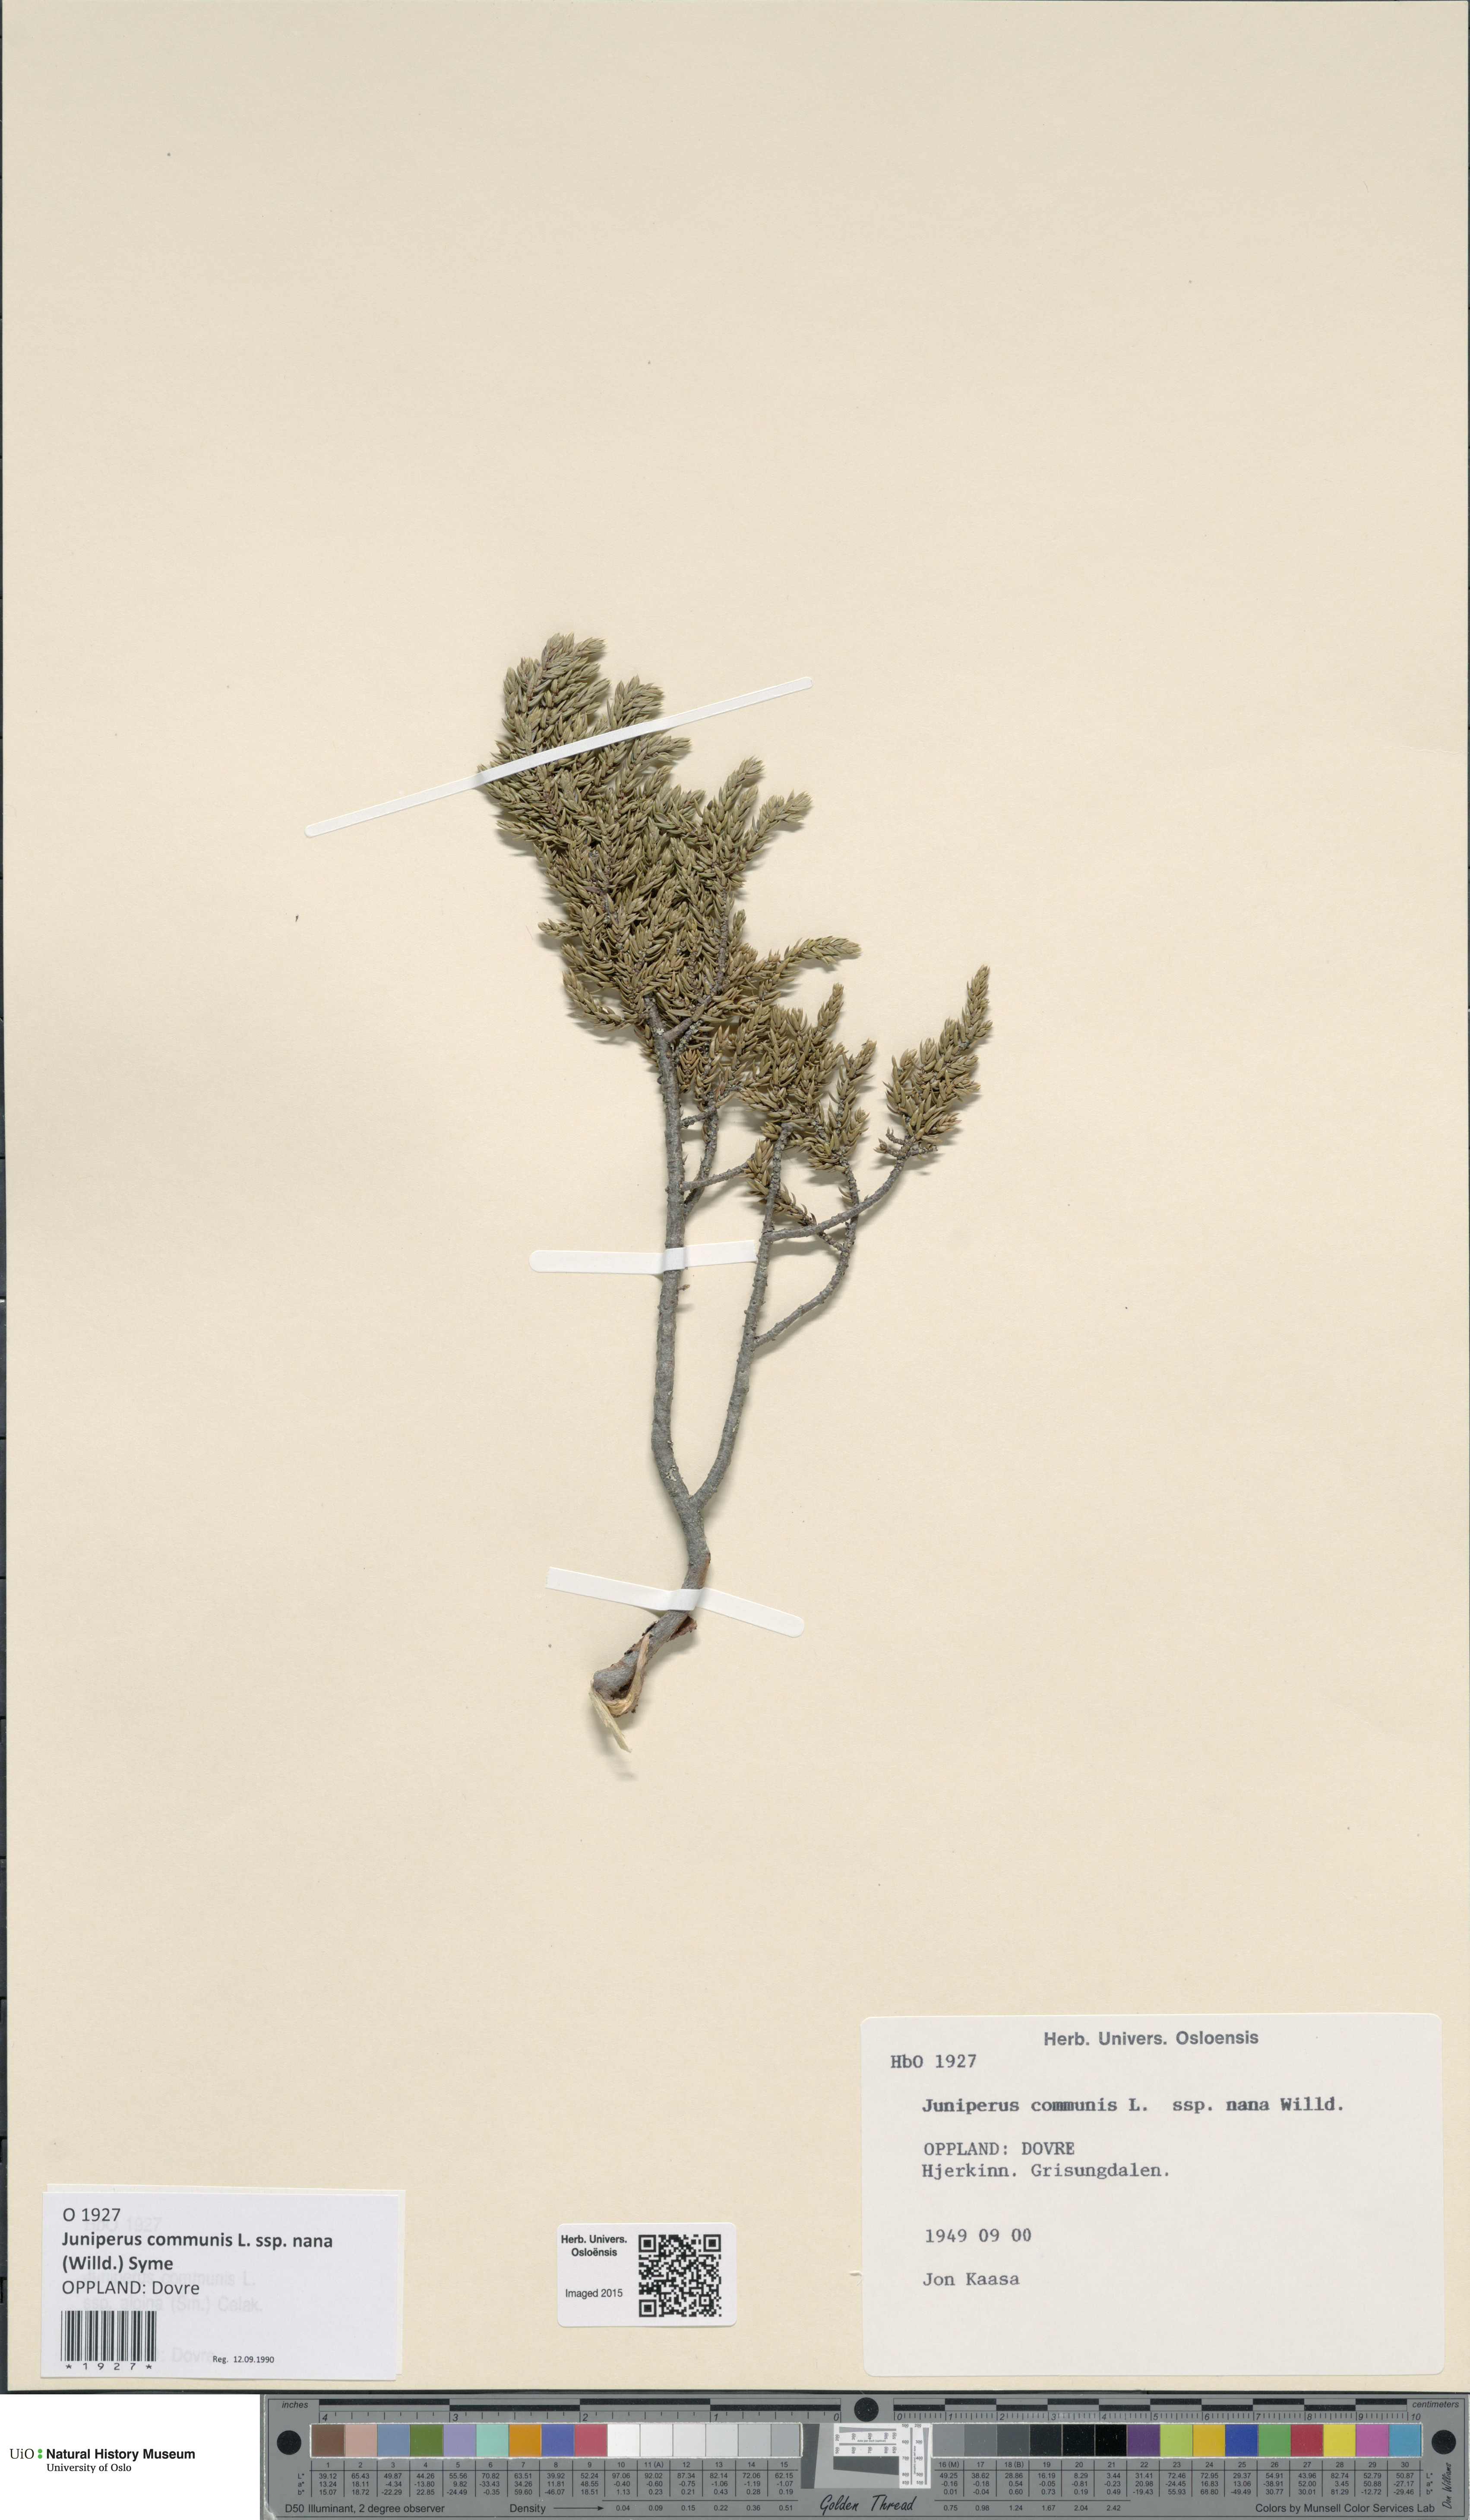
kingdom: Plantae
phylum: Tracheophyta
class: Pinopsida
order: Pinales
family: Cupressaceae
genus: Juniperus
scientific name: Juniperus communis
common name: Common juniper
